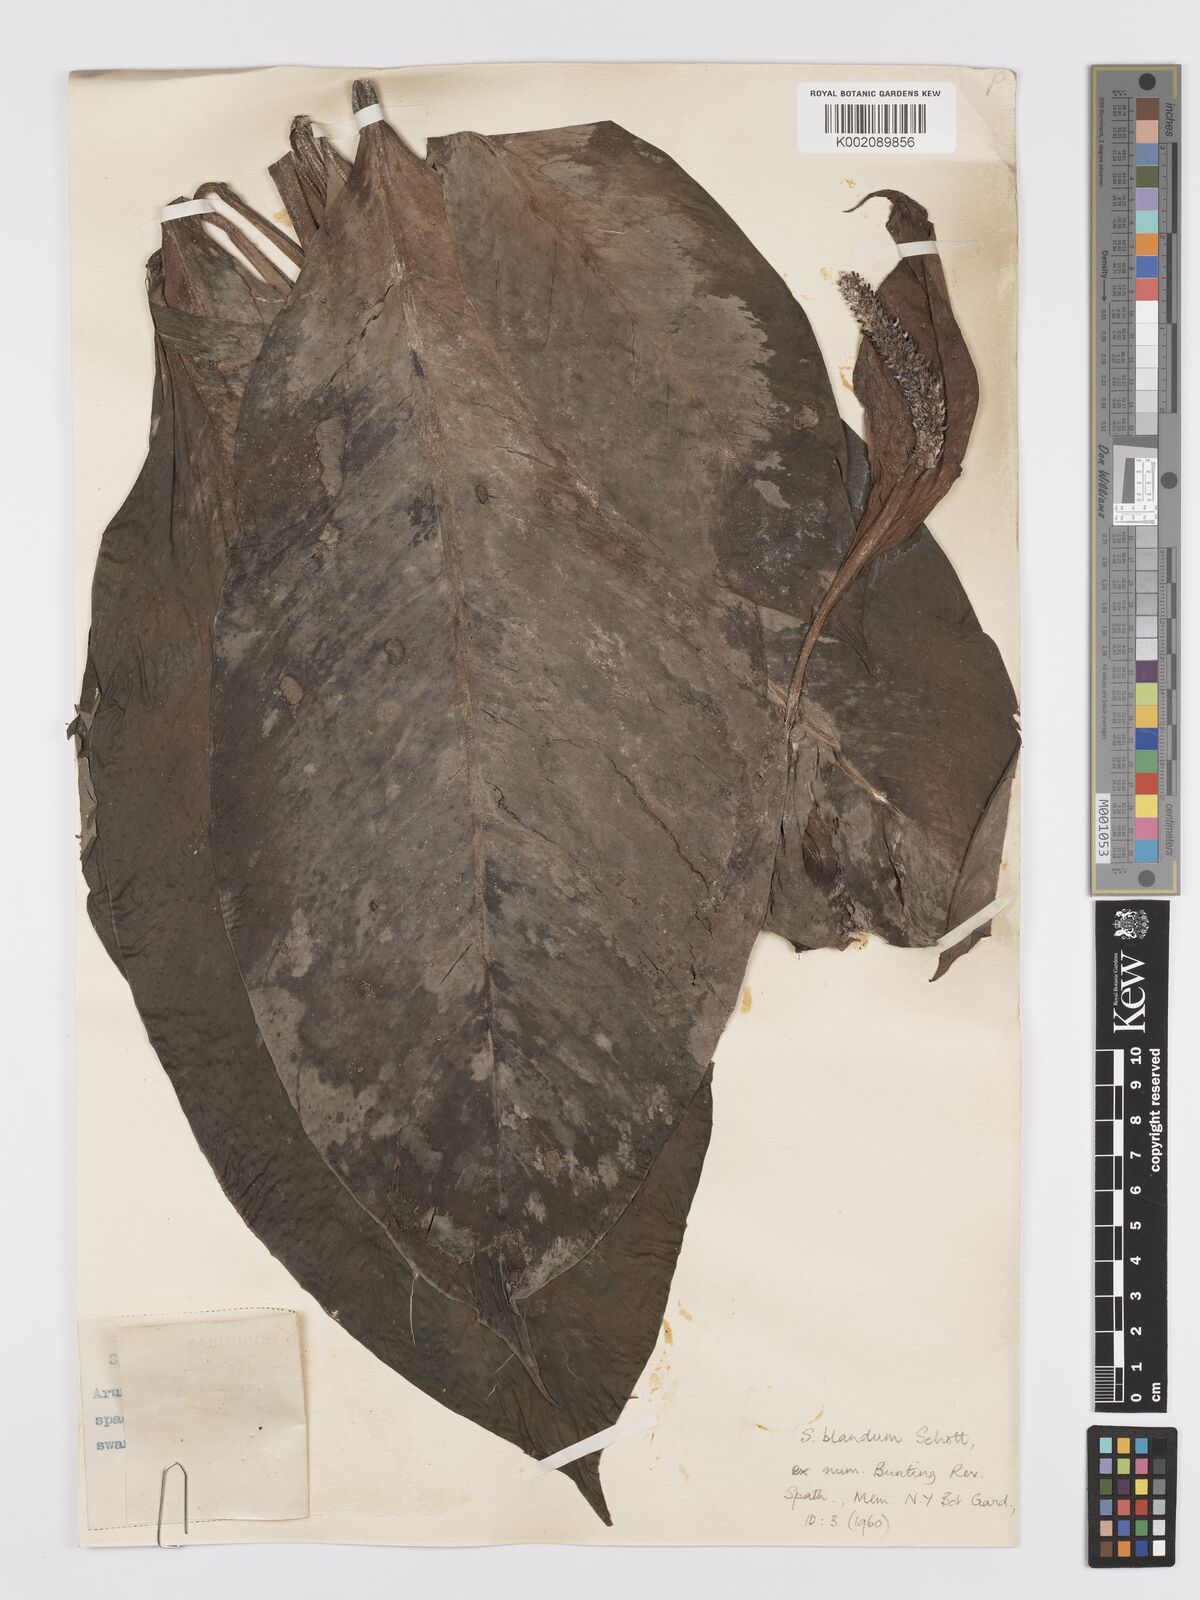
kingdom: Plantae
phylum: Tracheophyta
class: Liliopsida
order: Alismatales
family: Araceae
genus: Spathiphyllum
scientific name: Spathiphyllum blandum
